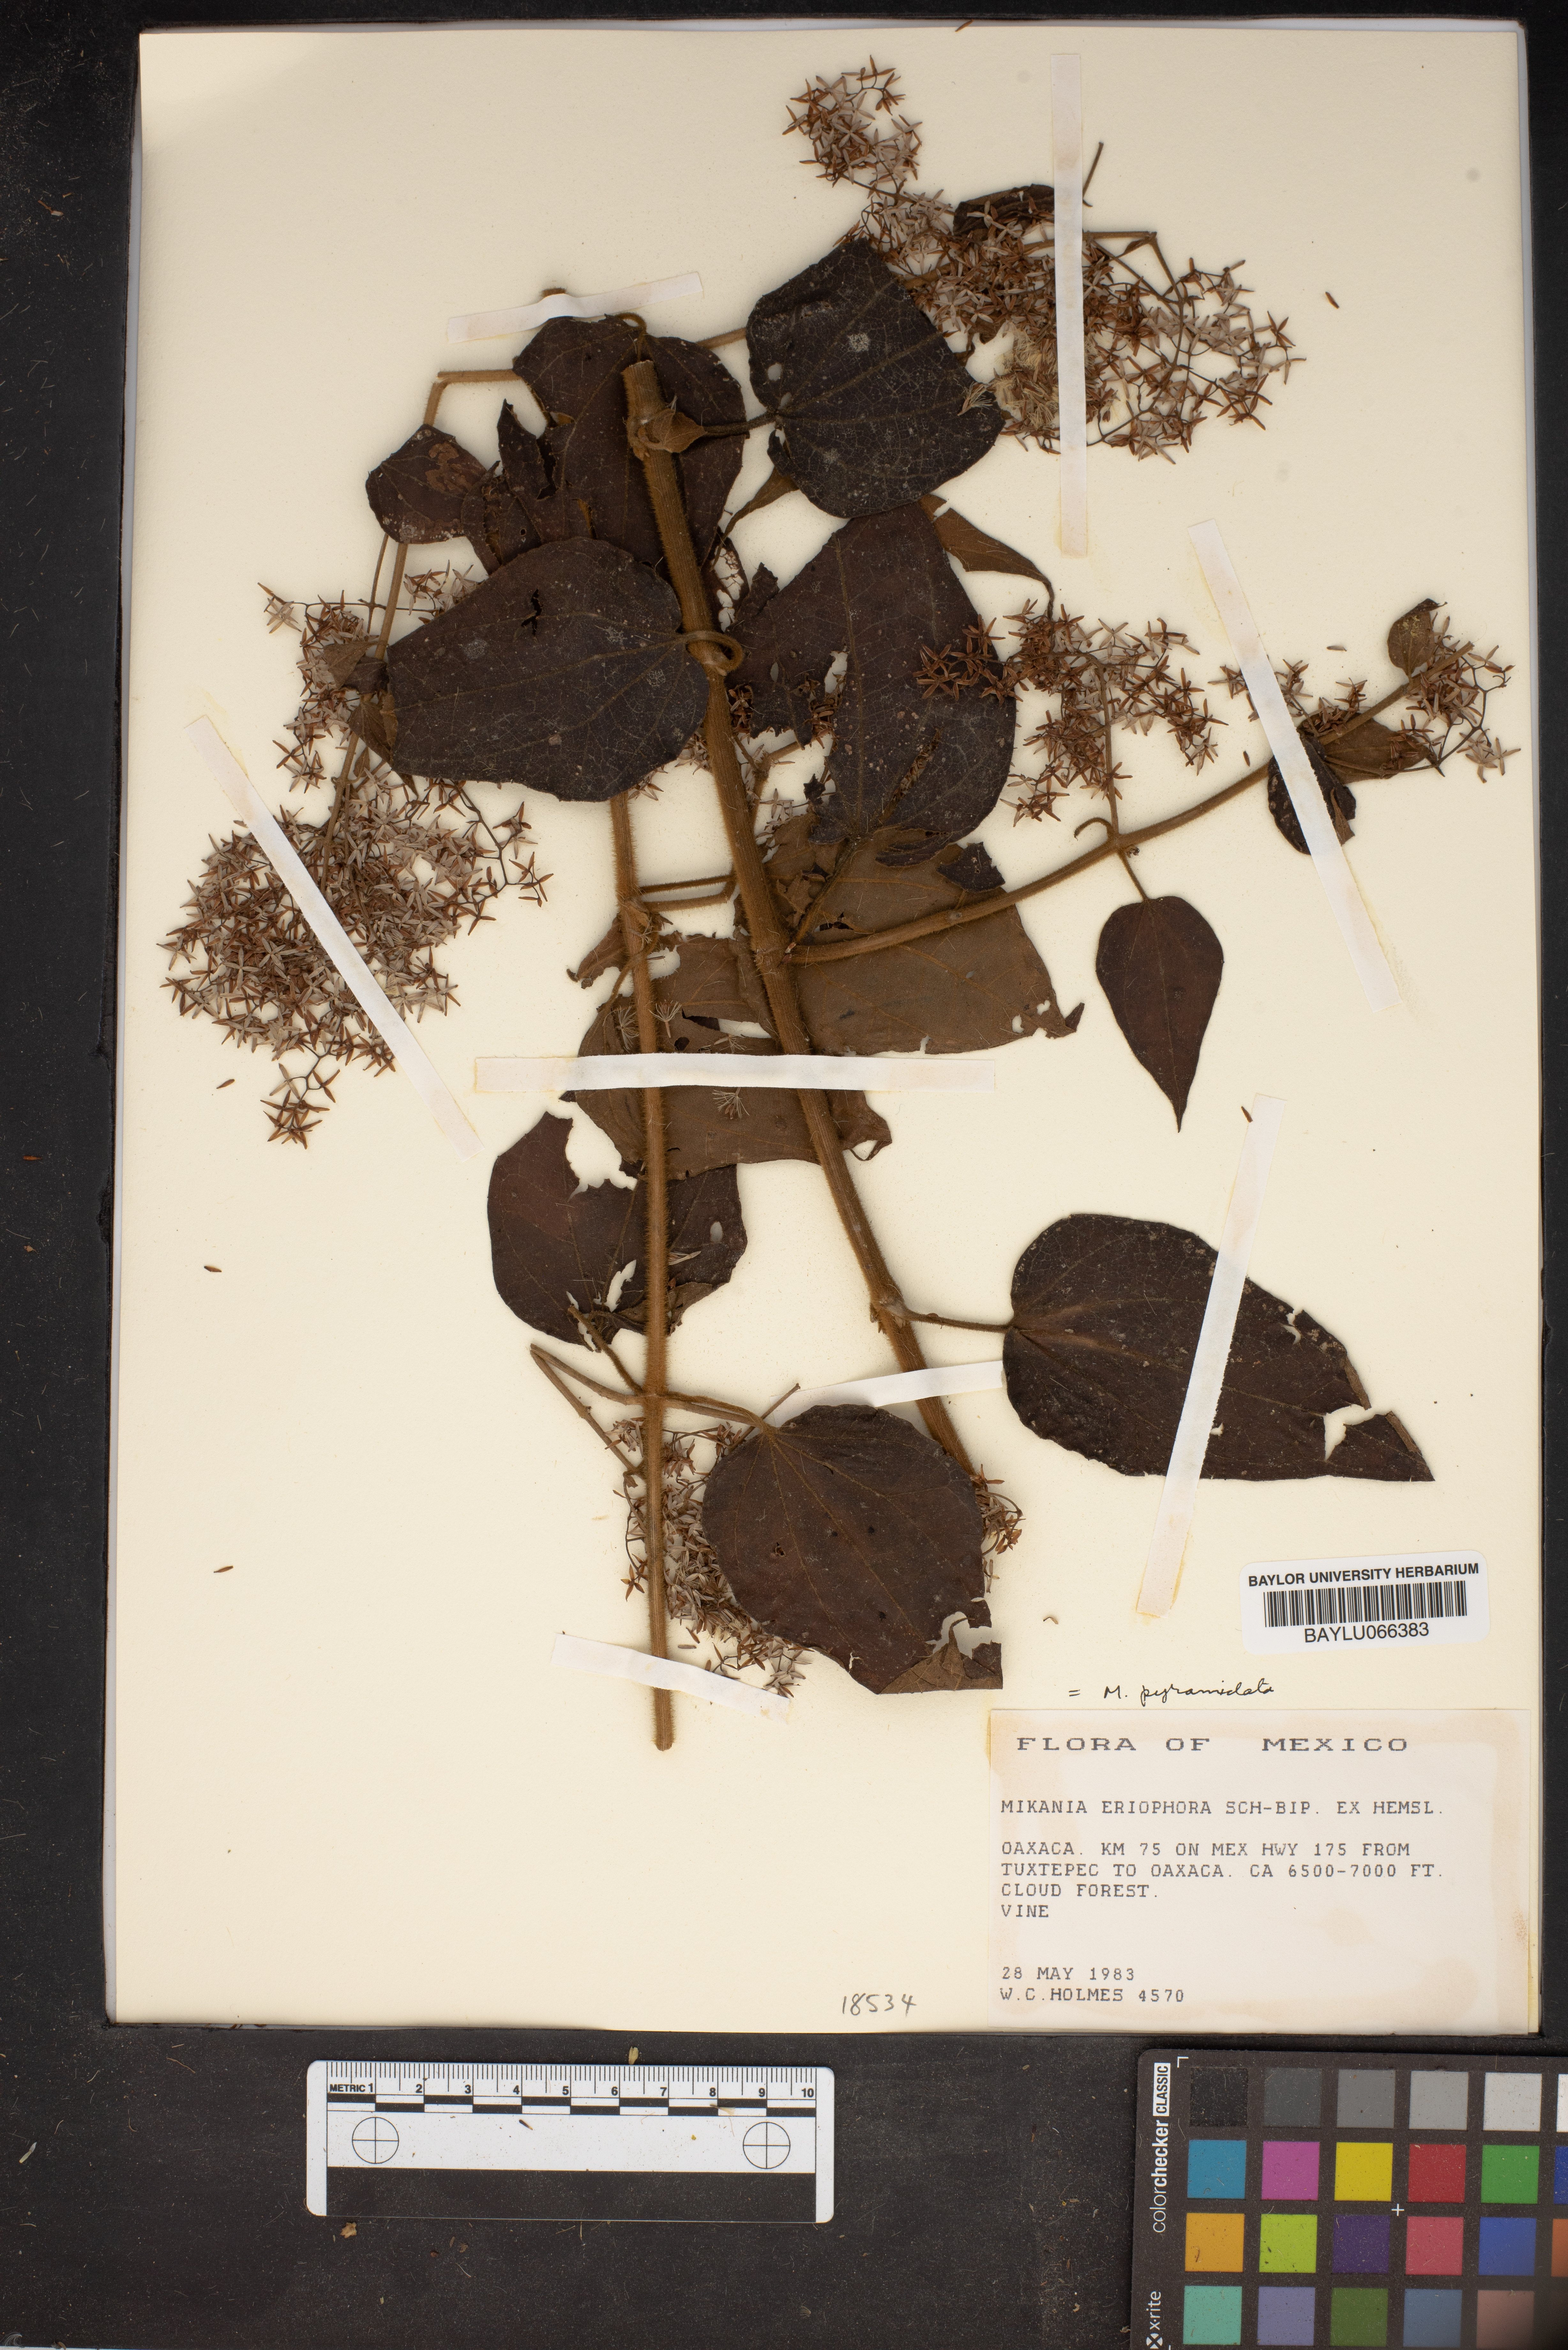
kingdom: Plantae
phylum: Tracheophyta
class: Magnoliopsida
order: Asterales
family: Asteraceae
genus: Mikania
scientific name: Mikania pyramidata
